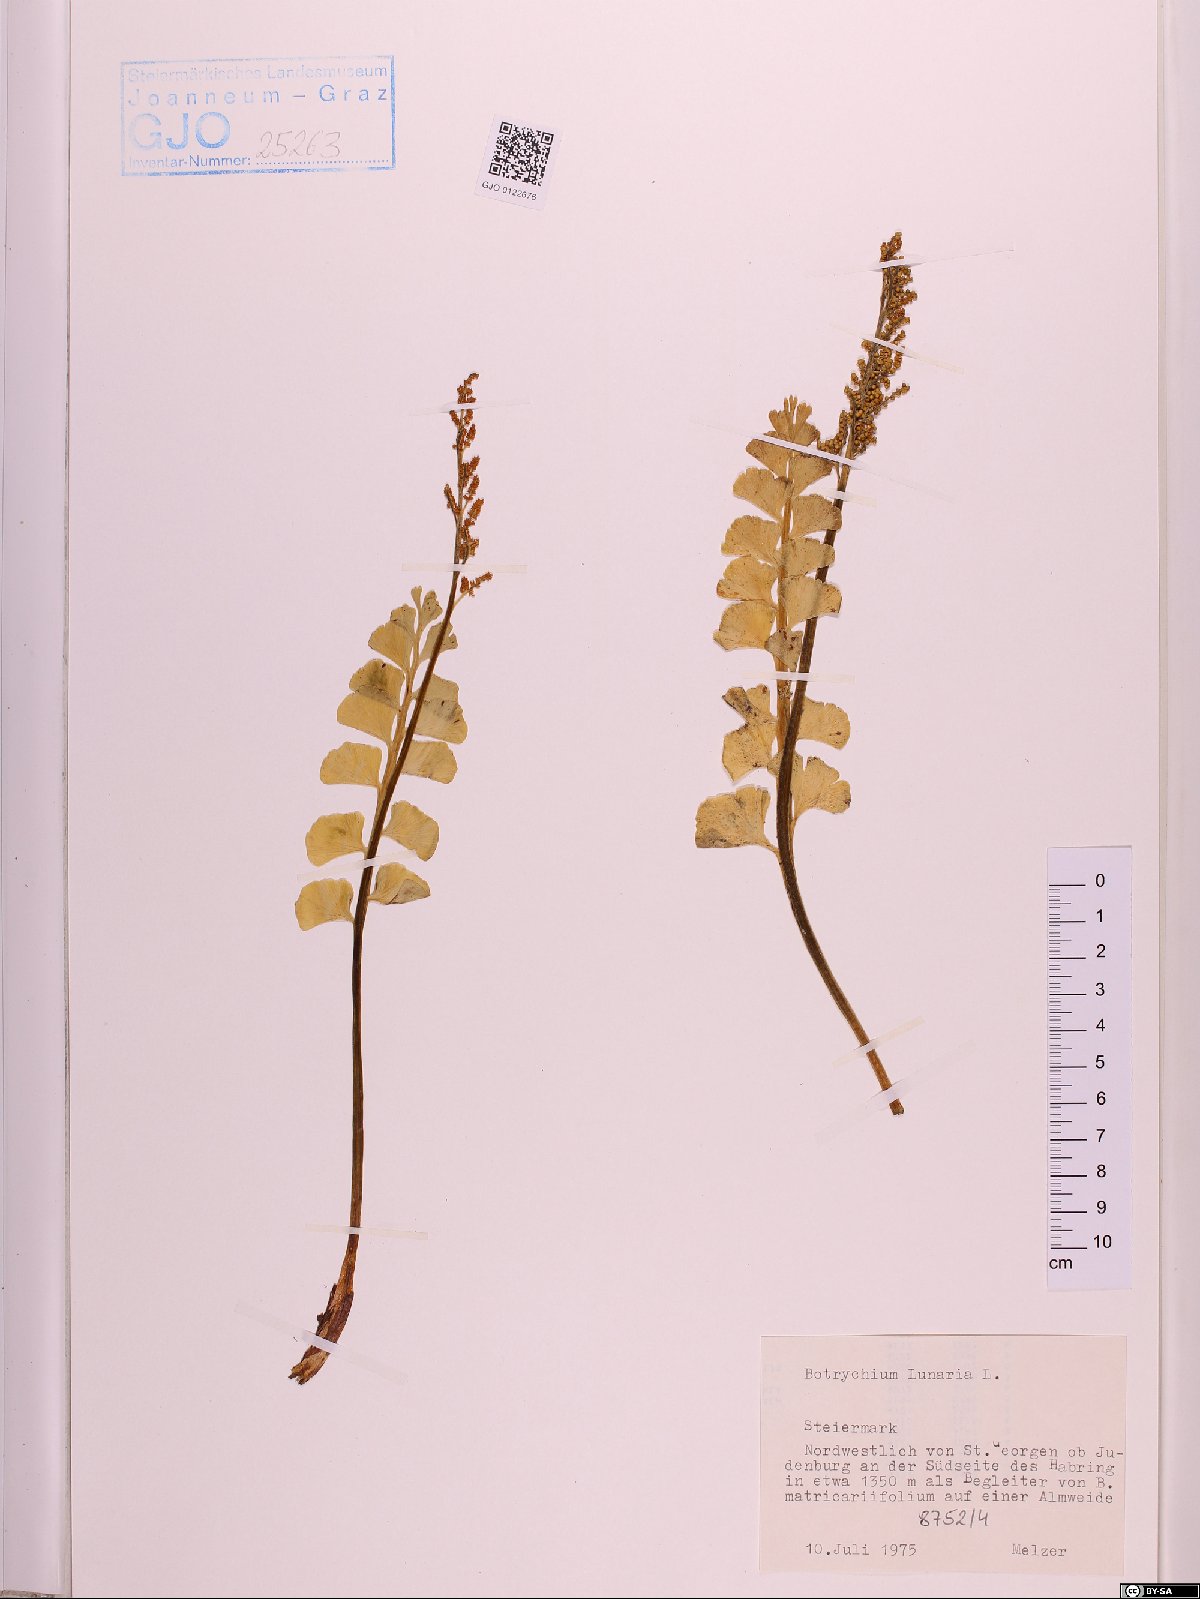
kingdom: Plantae
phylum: Tracheophyta
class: Polypodiopsida
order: Ophioglossales
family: Ophioglossaceae
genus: Botrychium
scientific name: Botrychium lunaria
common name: Moonwort
